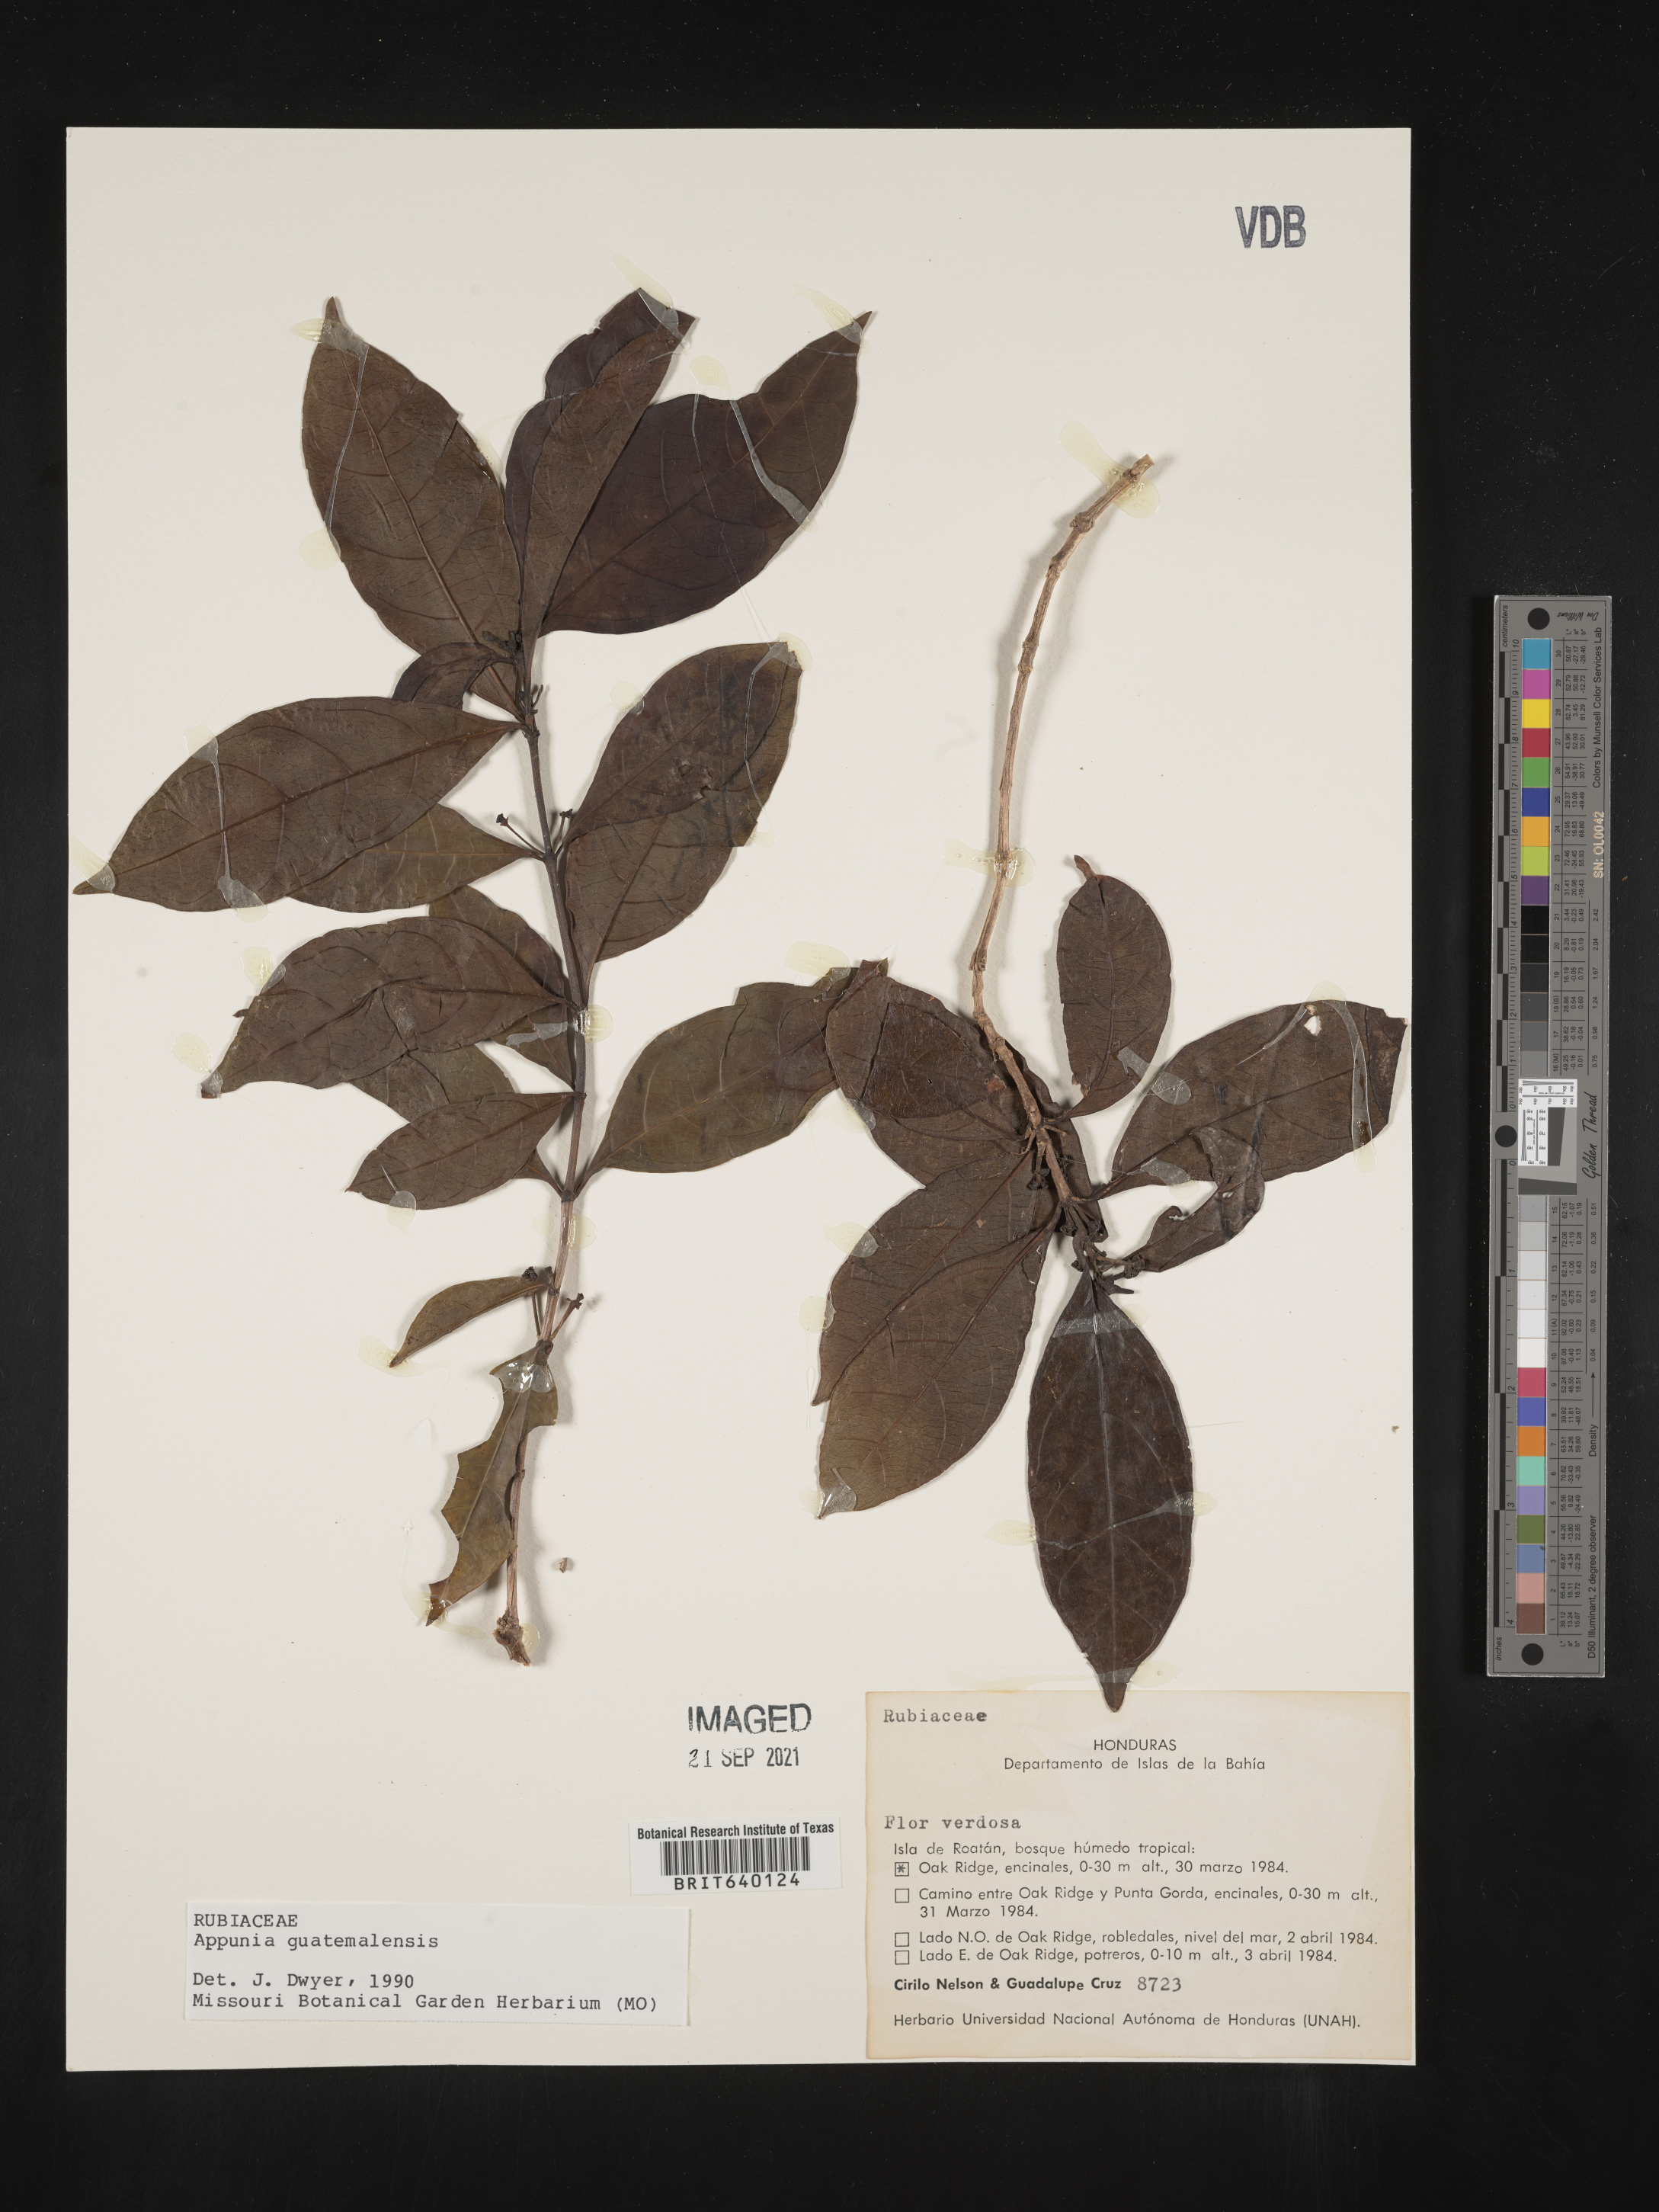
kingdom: Plantae
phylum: Tracheophyta
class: Magnoliopsida
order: Gentianales
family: Rubiaceae
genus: Appunia
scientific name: Appunia
